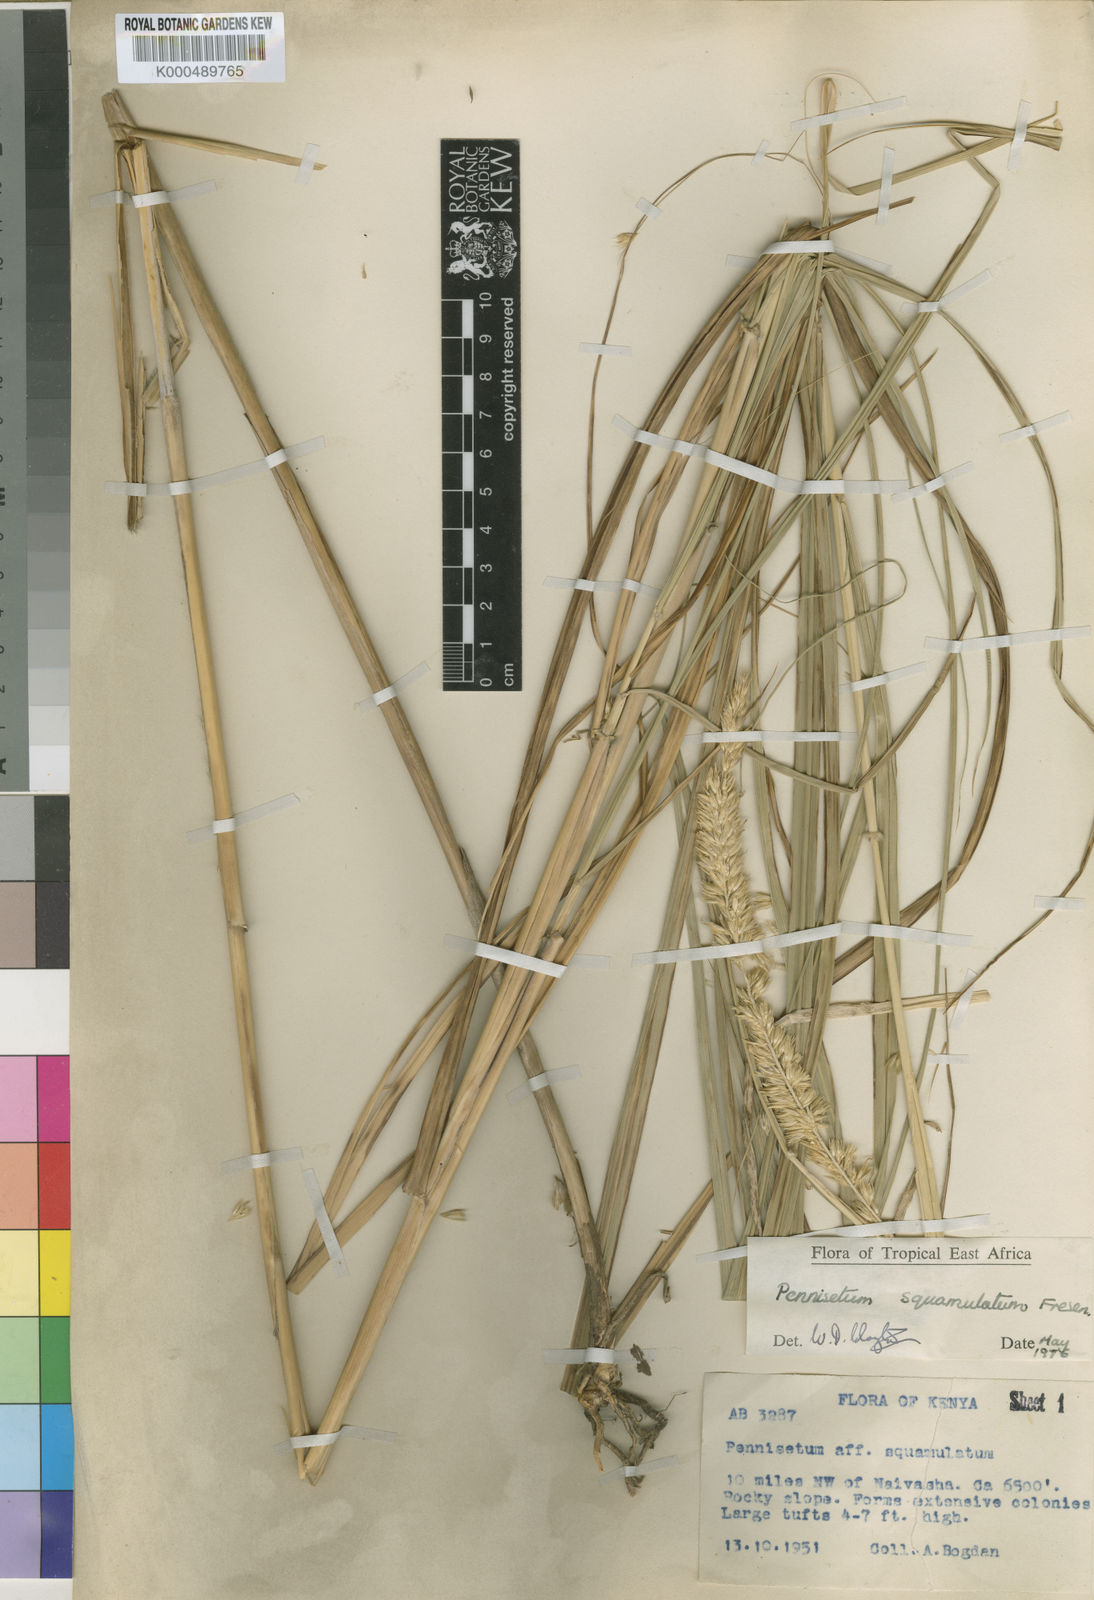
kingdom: Plantae
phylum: Tracheophyta
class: Liliopsida
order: Poales
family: Poaceae
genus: Cenchrus
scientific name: Cenchrus squamulatus
